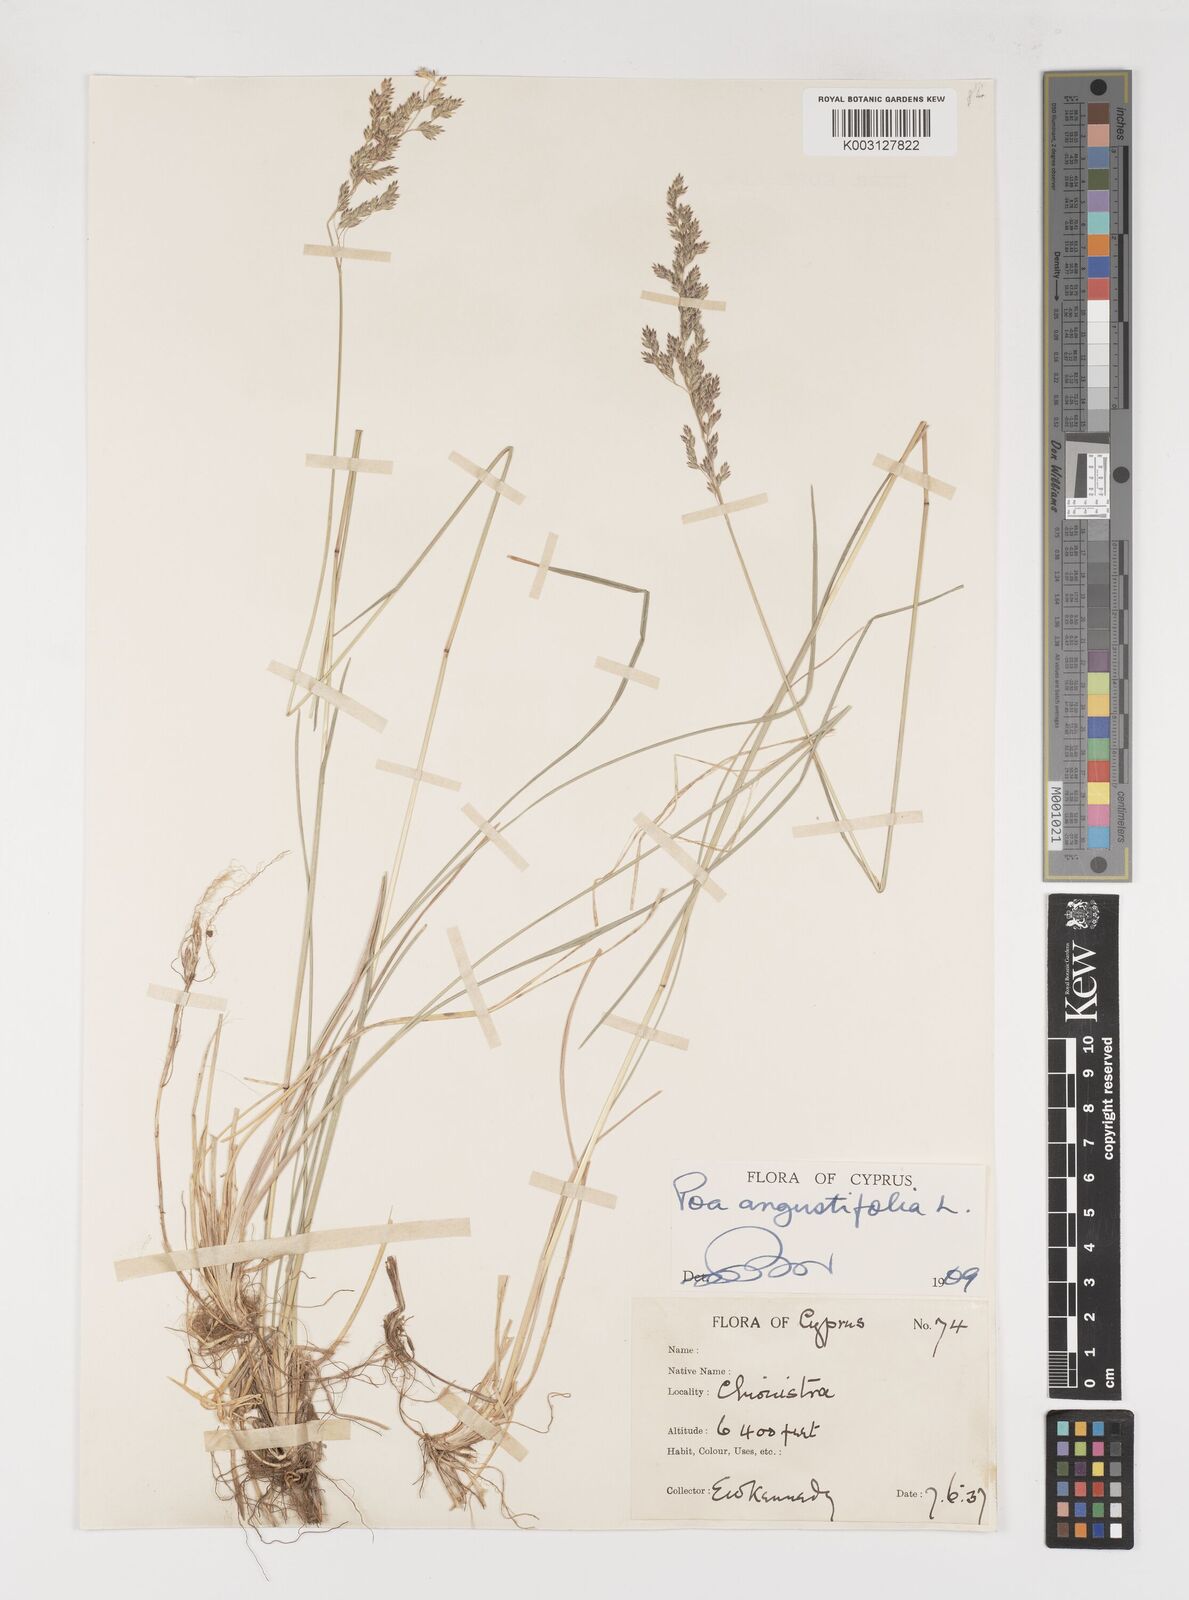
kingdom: Plantae
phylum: Tracheophyta
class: Liliopsida
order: Poales
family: Poaceae
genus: Poa
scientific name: Poa angustifolia
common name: Narrow-leaved meadow-grass
